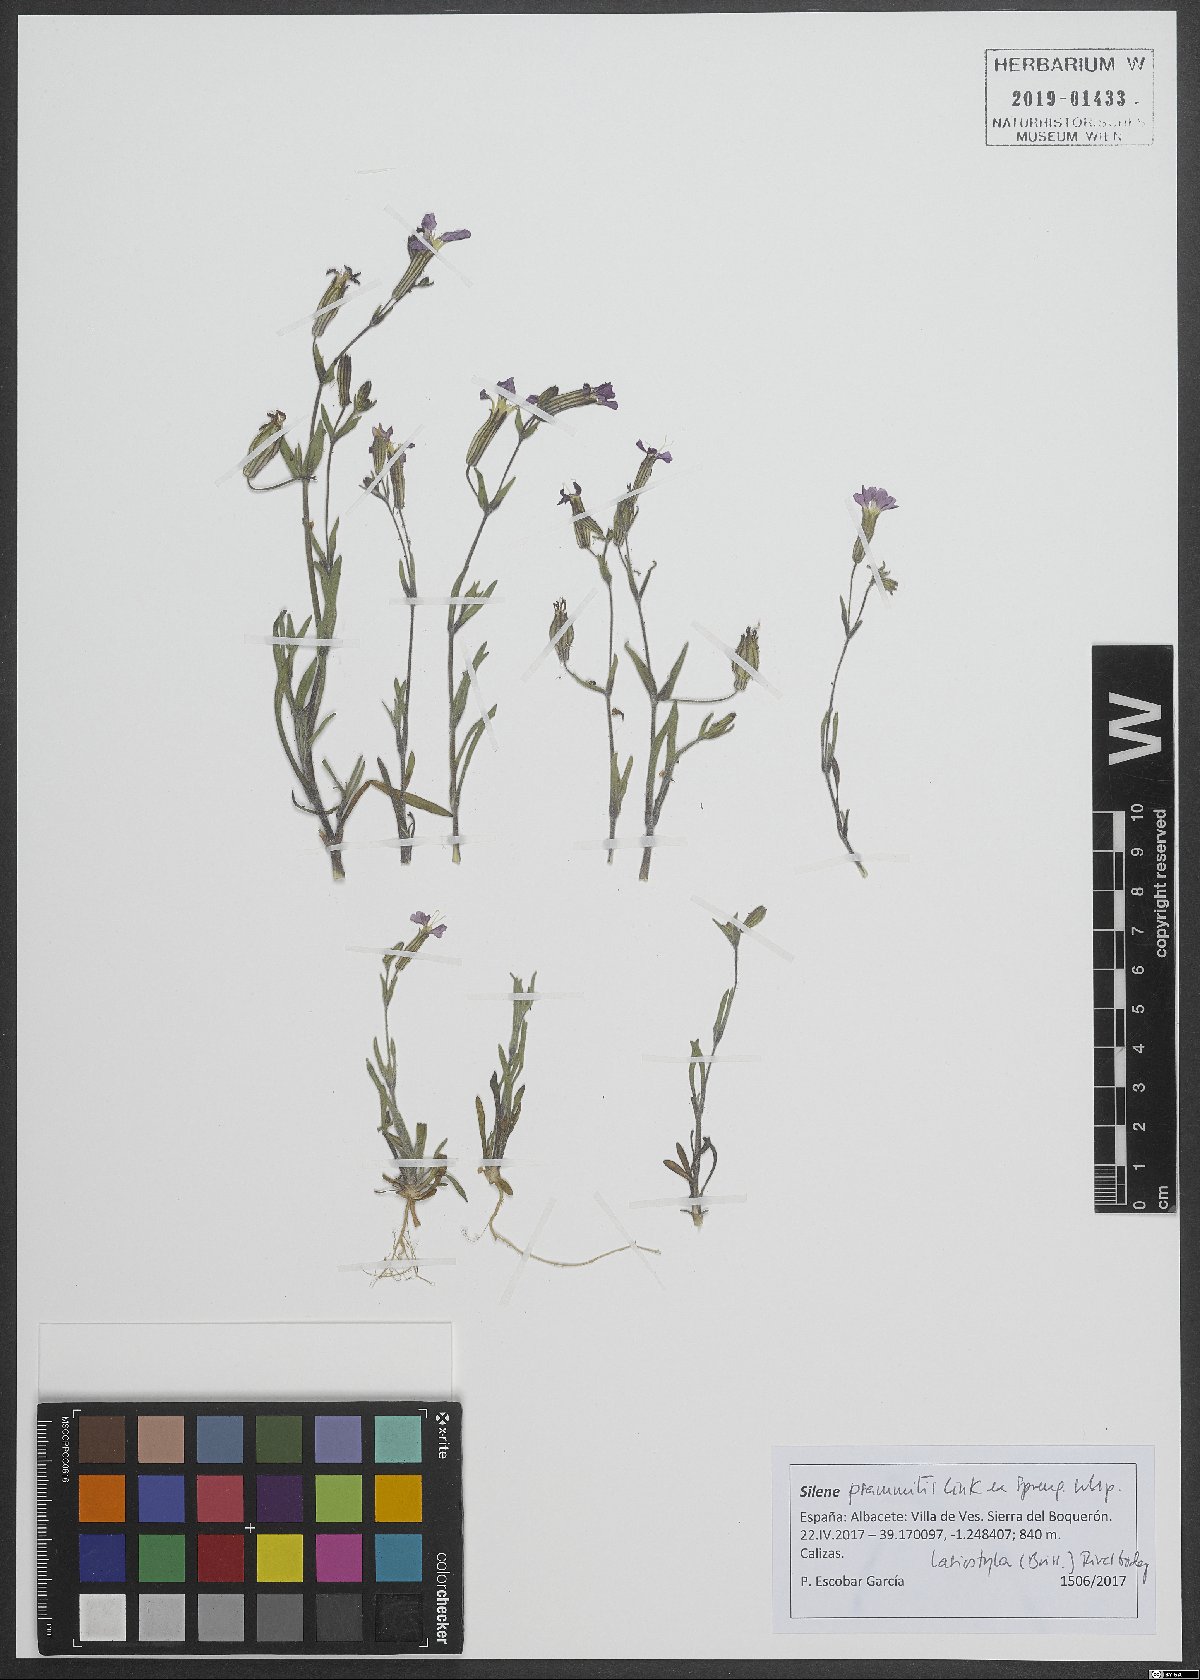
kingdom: Plantae
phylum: Tracheophyta
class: Magnoliopsida
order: Caryophyllales
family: Caryophyllaceae
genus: Silene
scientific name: Silene psammitis
